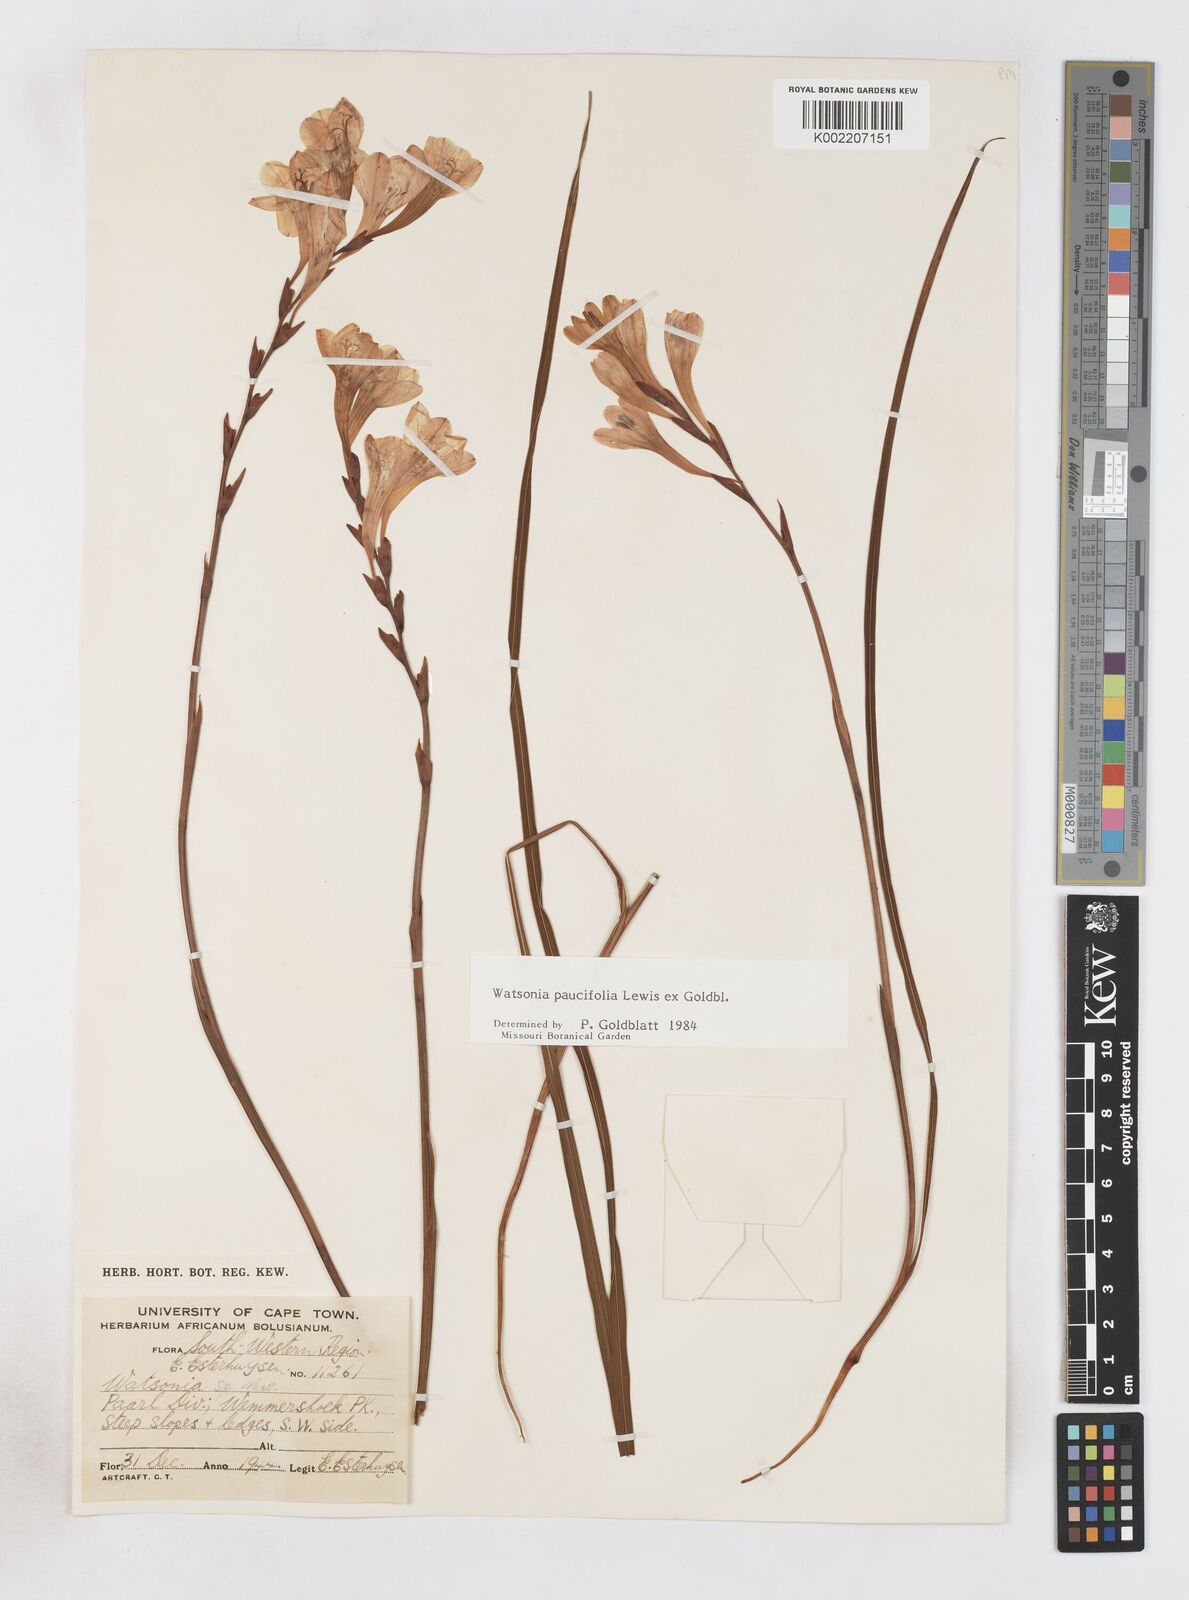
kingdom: Plantae
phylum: Tracheophyta
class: Liliopsida
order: Asparagales
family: Iridaceae
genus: Watsonia
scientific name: Watsonia distans
